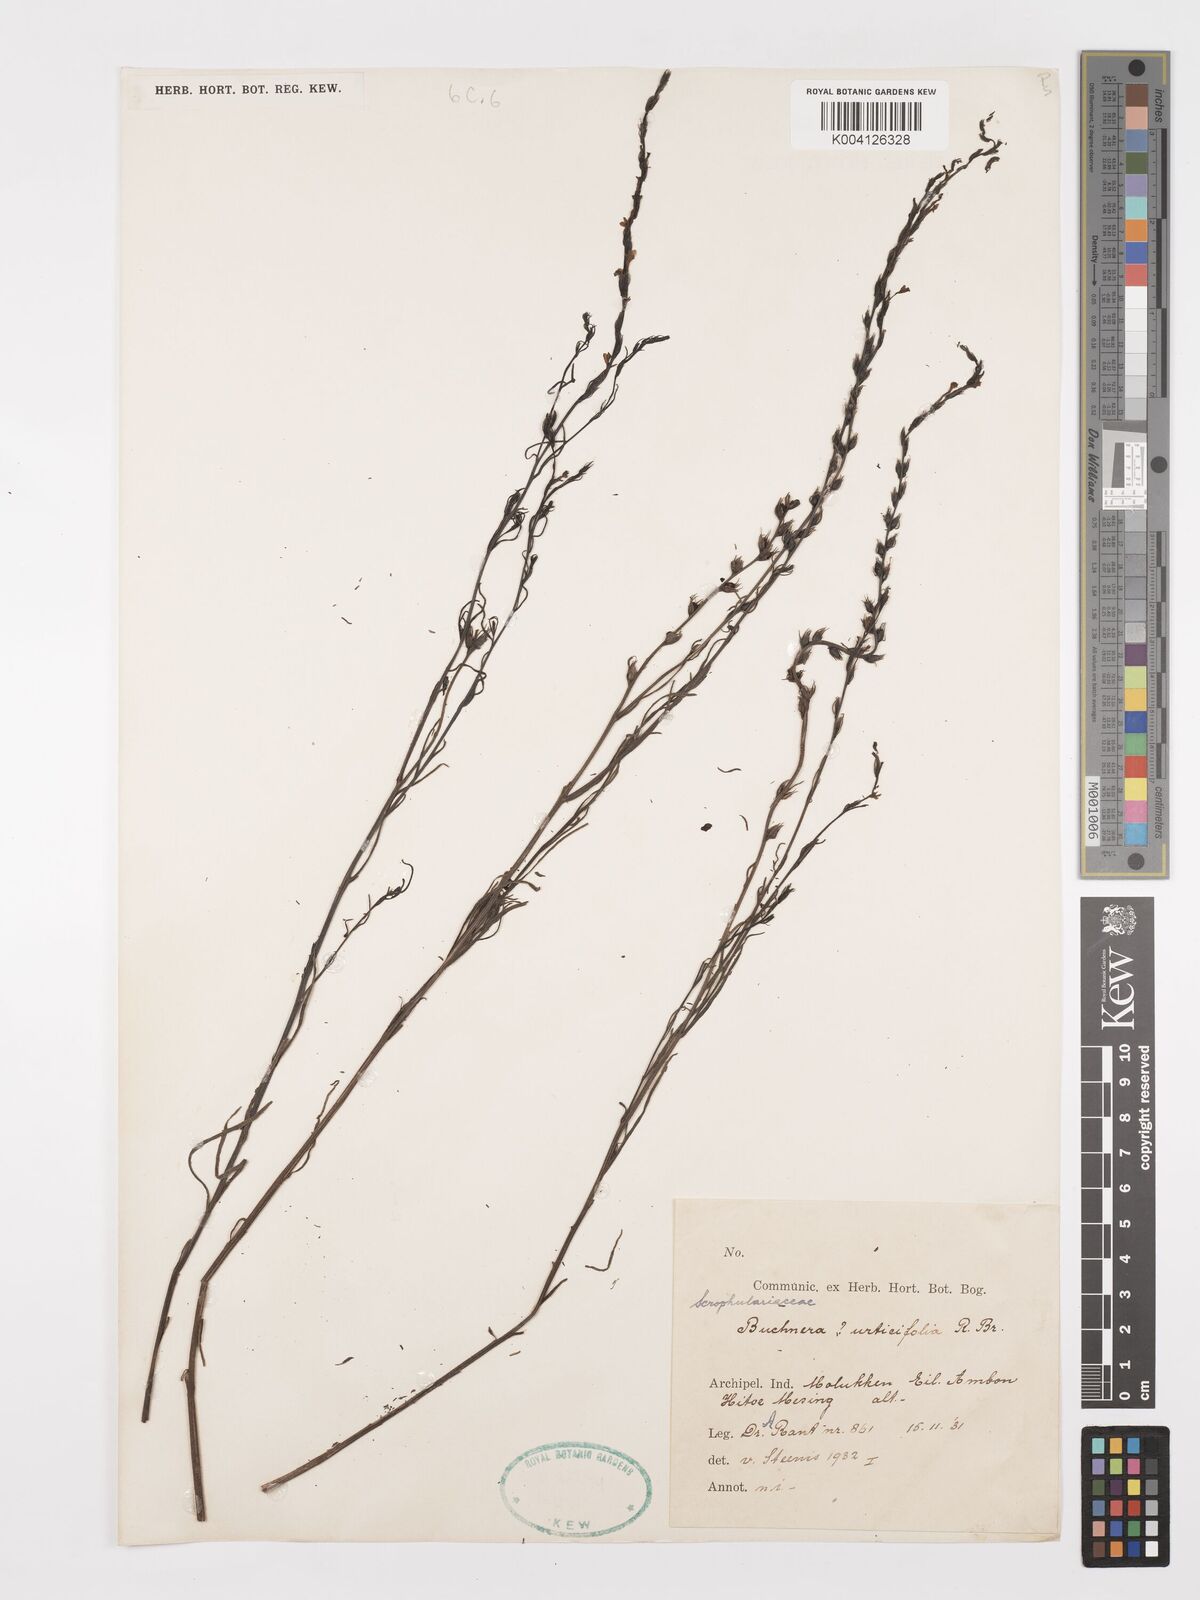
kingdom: Plantae
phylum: Tracheophyta
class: Magnoliopsida
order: Lamiales
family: Orobanchaceae
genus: Buchnera
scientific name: Buchnera urticifolia
